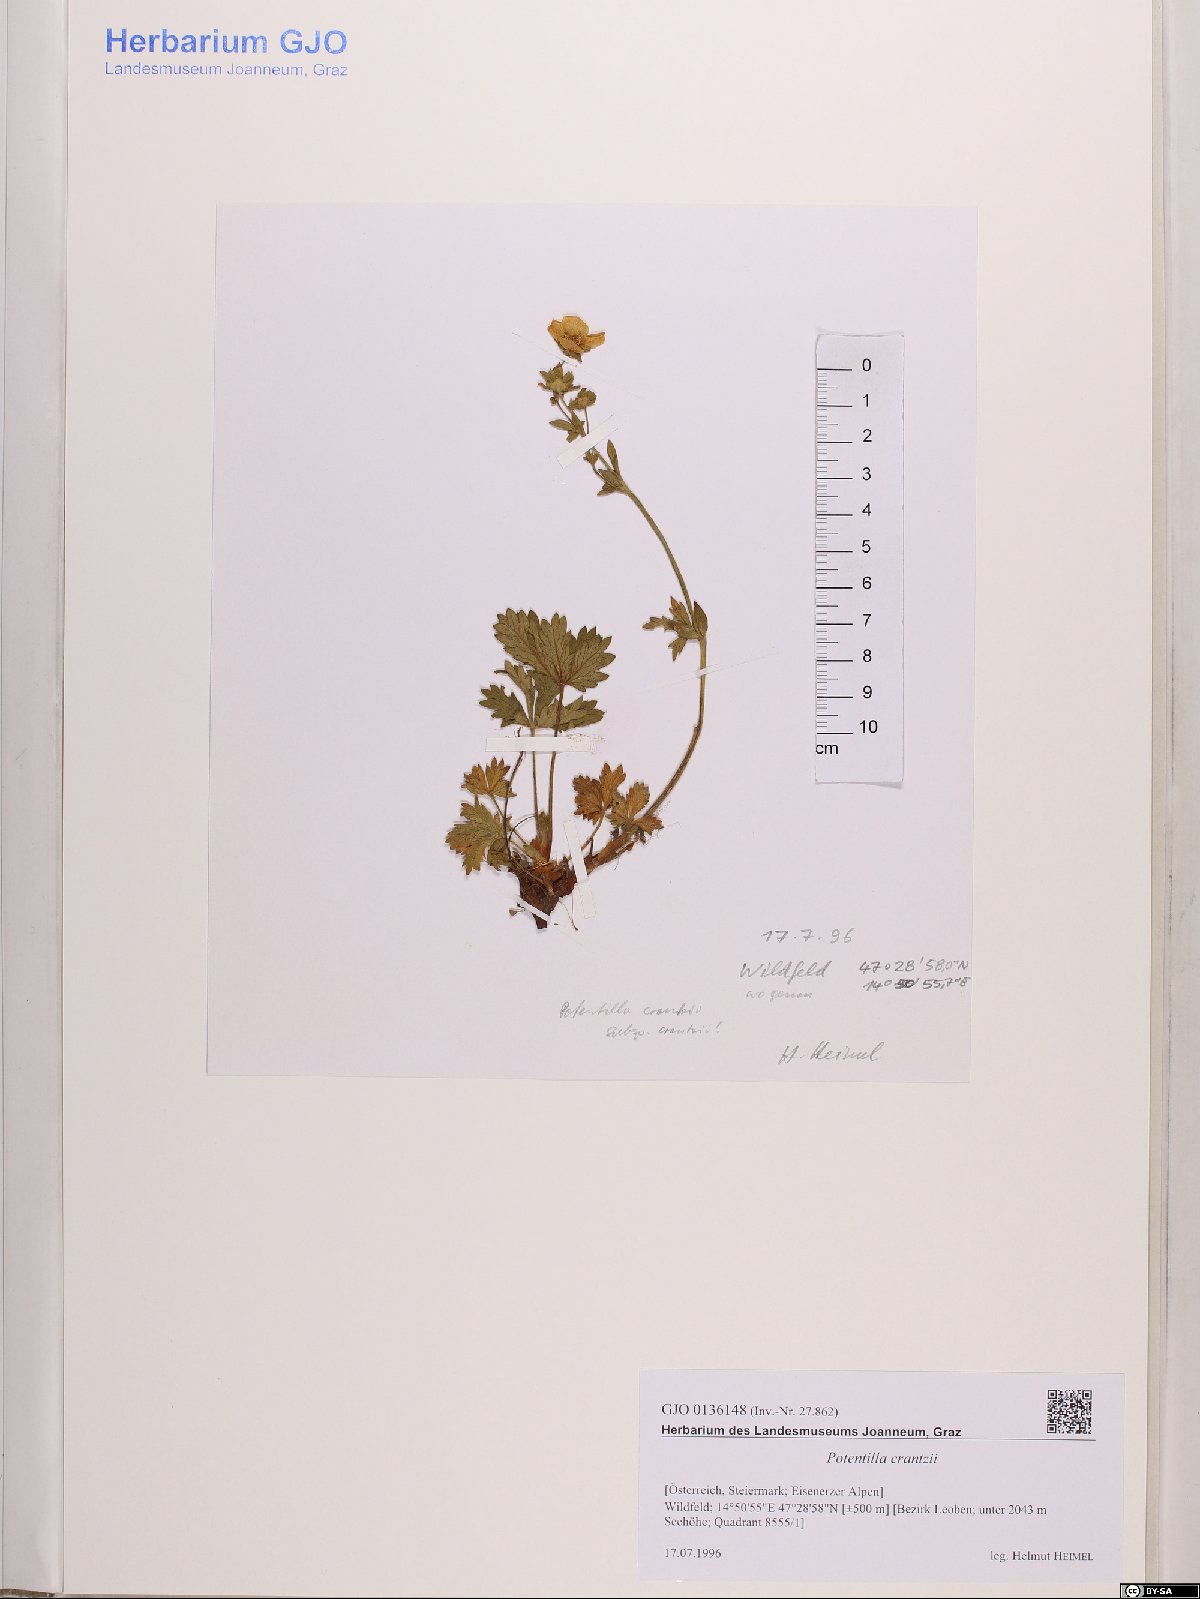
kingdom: Plantae
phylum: Tracheophyta
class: Magnoliopsida
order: Rosales
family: Rosaceae
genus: Potentilla
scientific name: Potentilla crantzii
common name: Alpine cinquefoil
